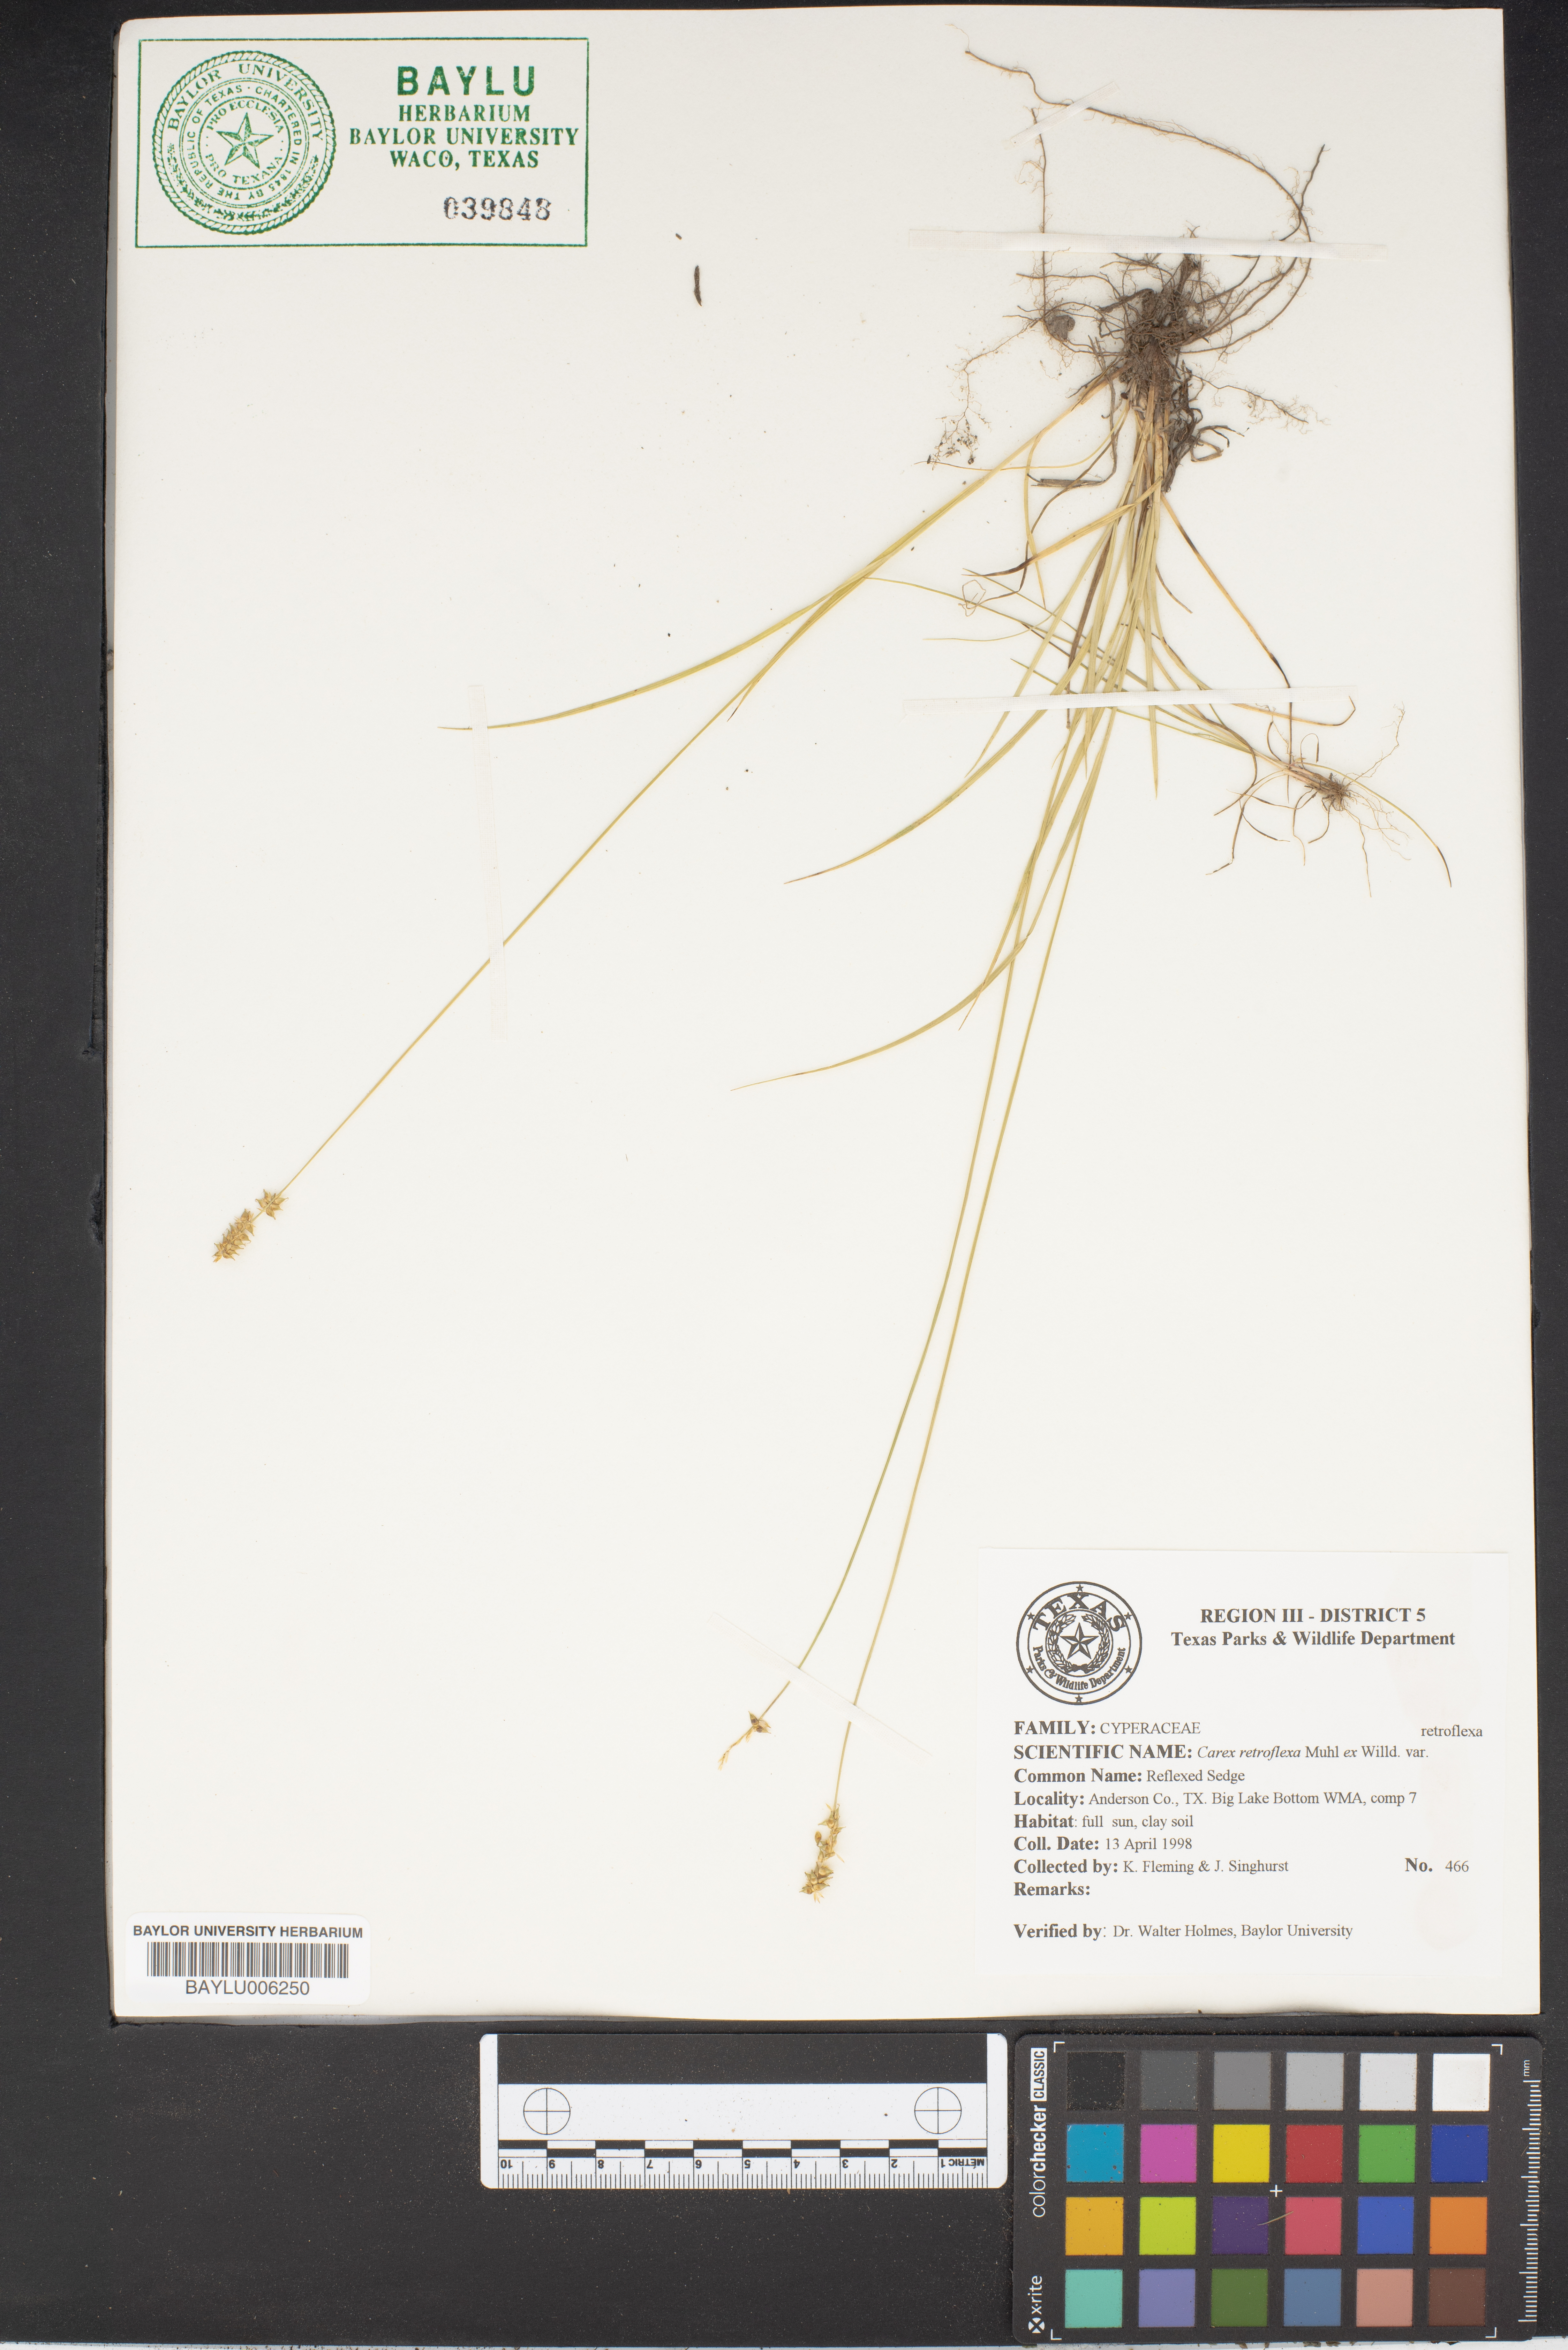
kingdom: Plantae
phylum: Tracheophyta
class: Liliopsida
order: Poales
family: Cyperaceae
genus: Carex
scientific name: Carex retroflexa
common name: Reflexed sedge
